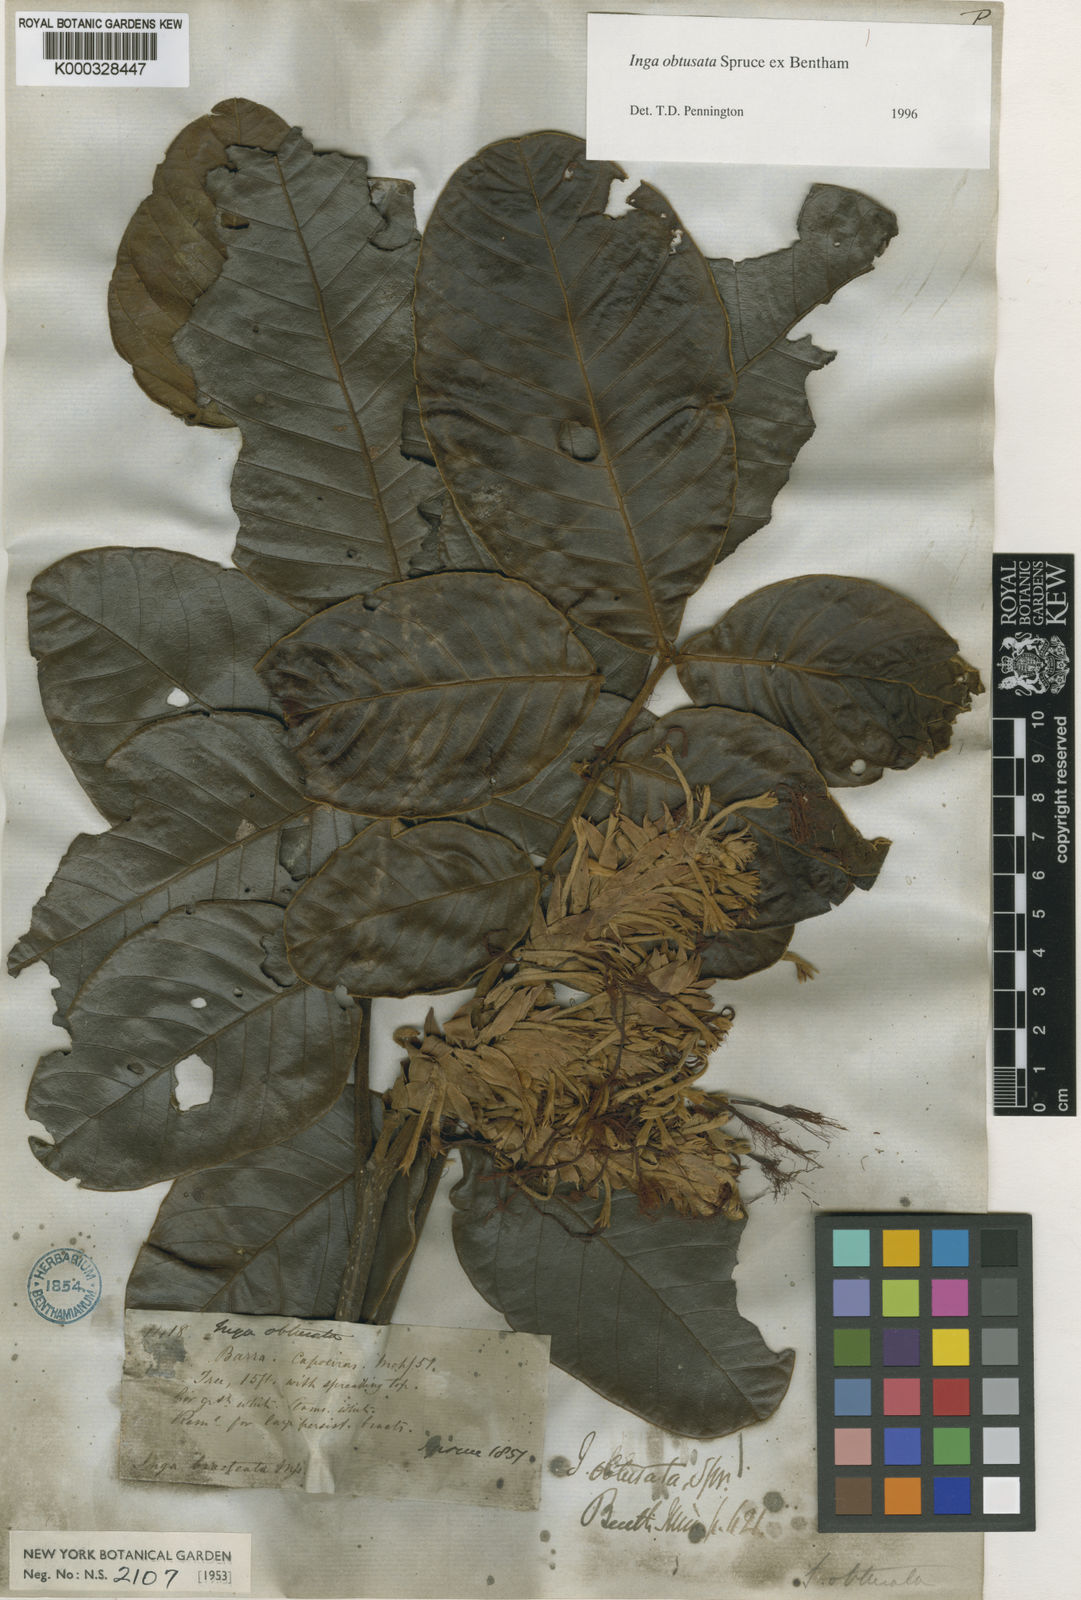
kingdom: Plantae
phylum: Tracheophyta
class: Magnoliopsida
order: Fabales
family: Fabaceae
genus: Inga
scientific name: Inga obtusata
